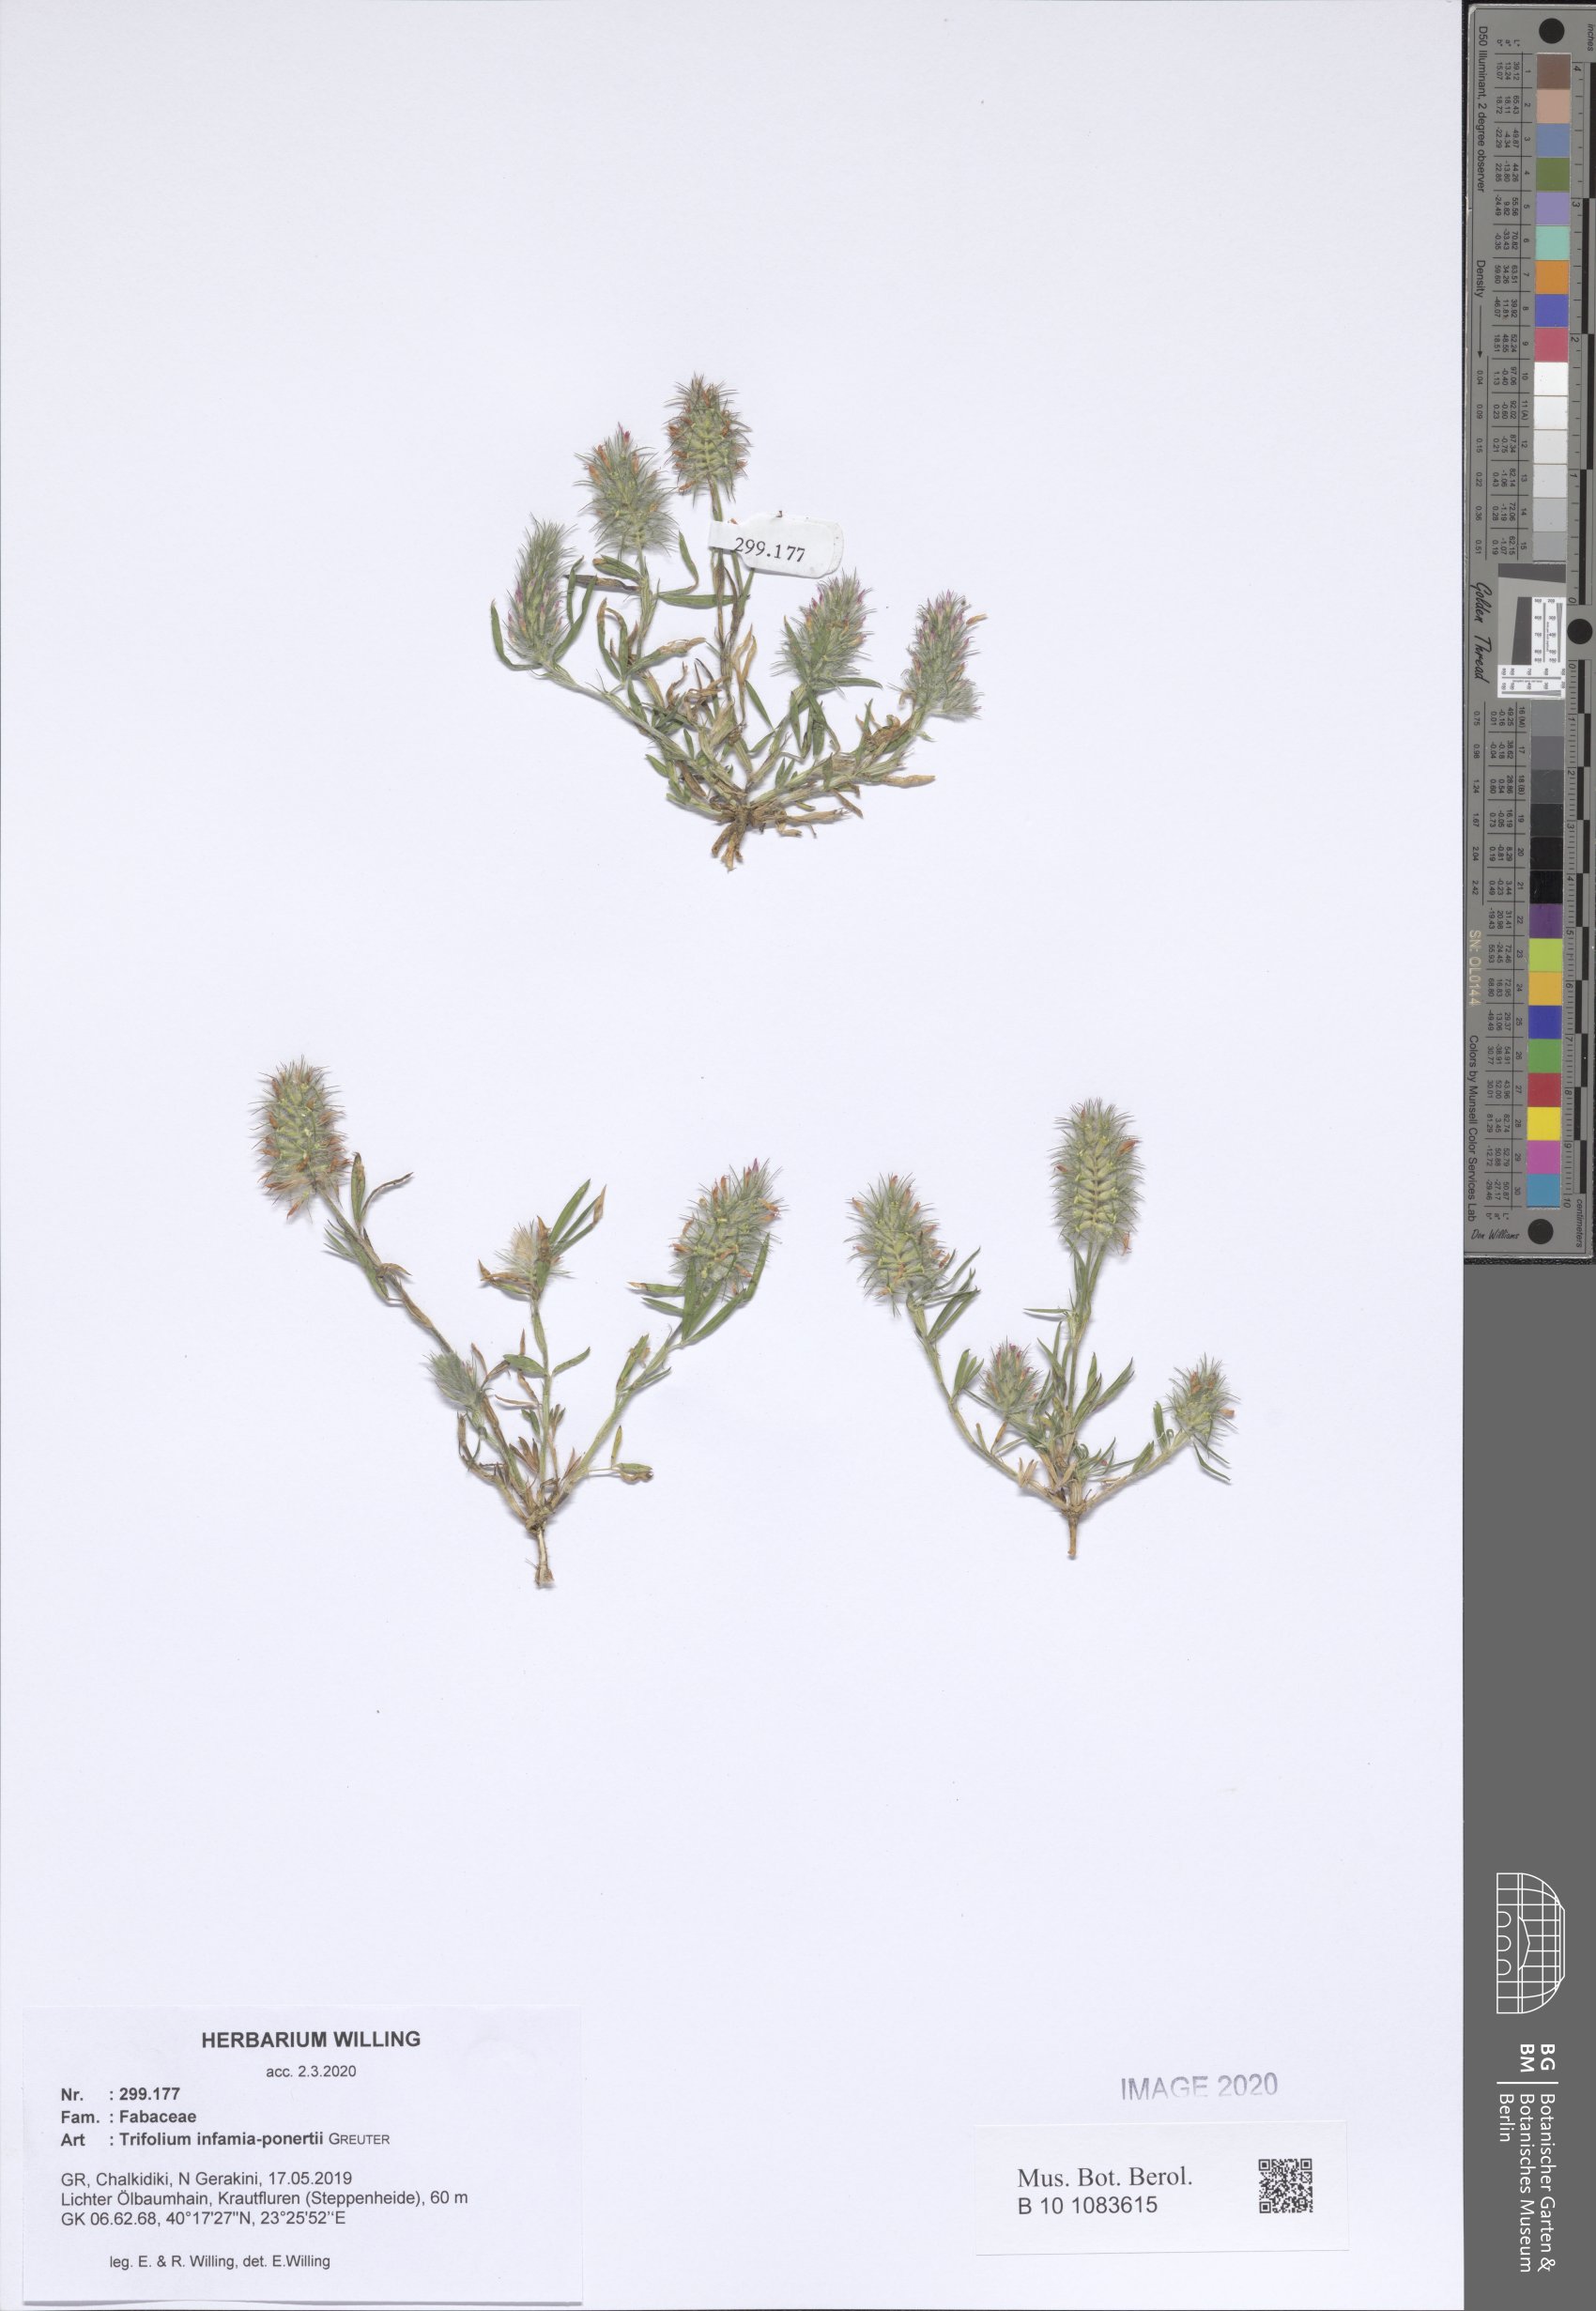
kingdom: Plantae
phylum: Tracheophyta
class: Magnoliopsida
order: Fabales
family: Fabaceae
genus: Trifolium
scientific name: Trifolium infamia-ponertii
